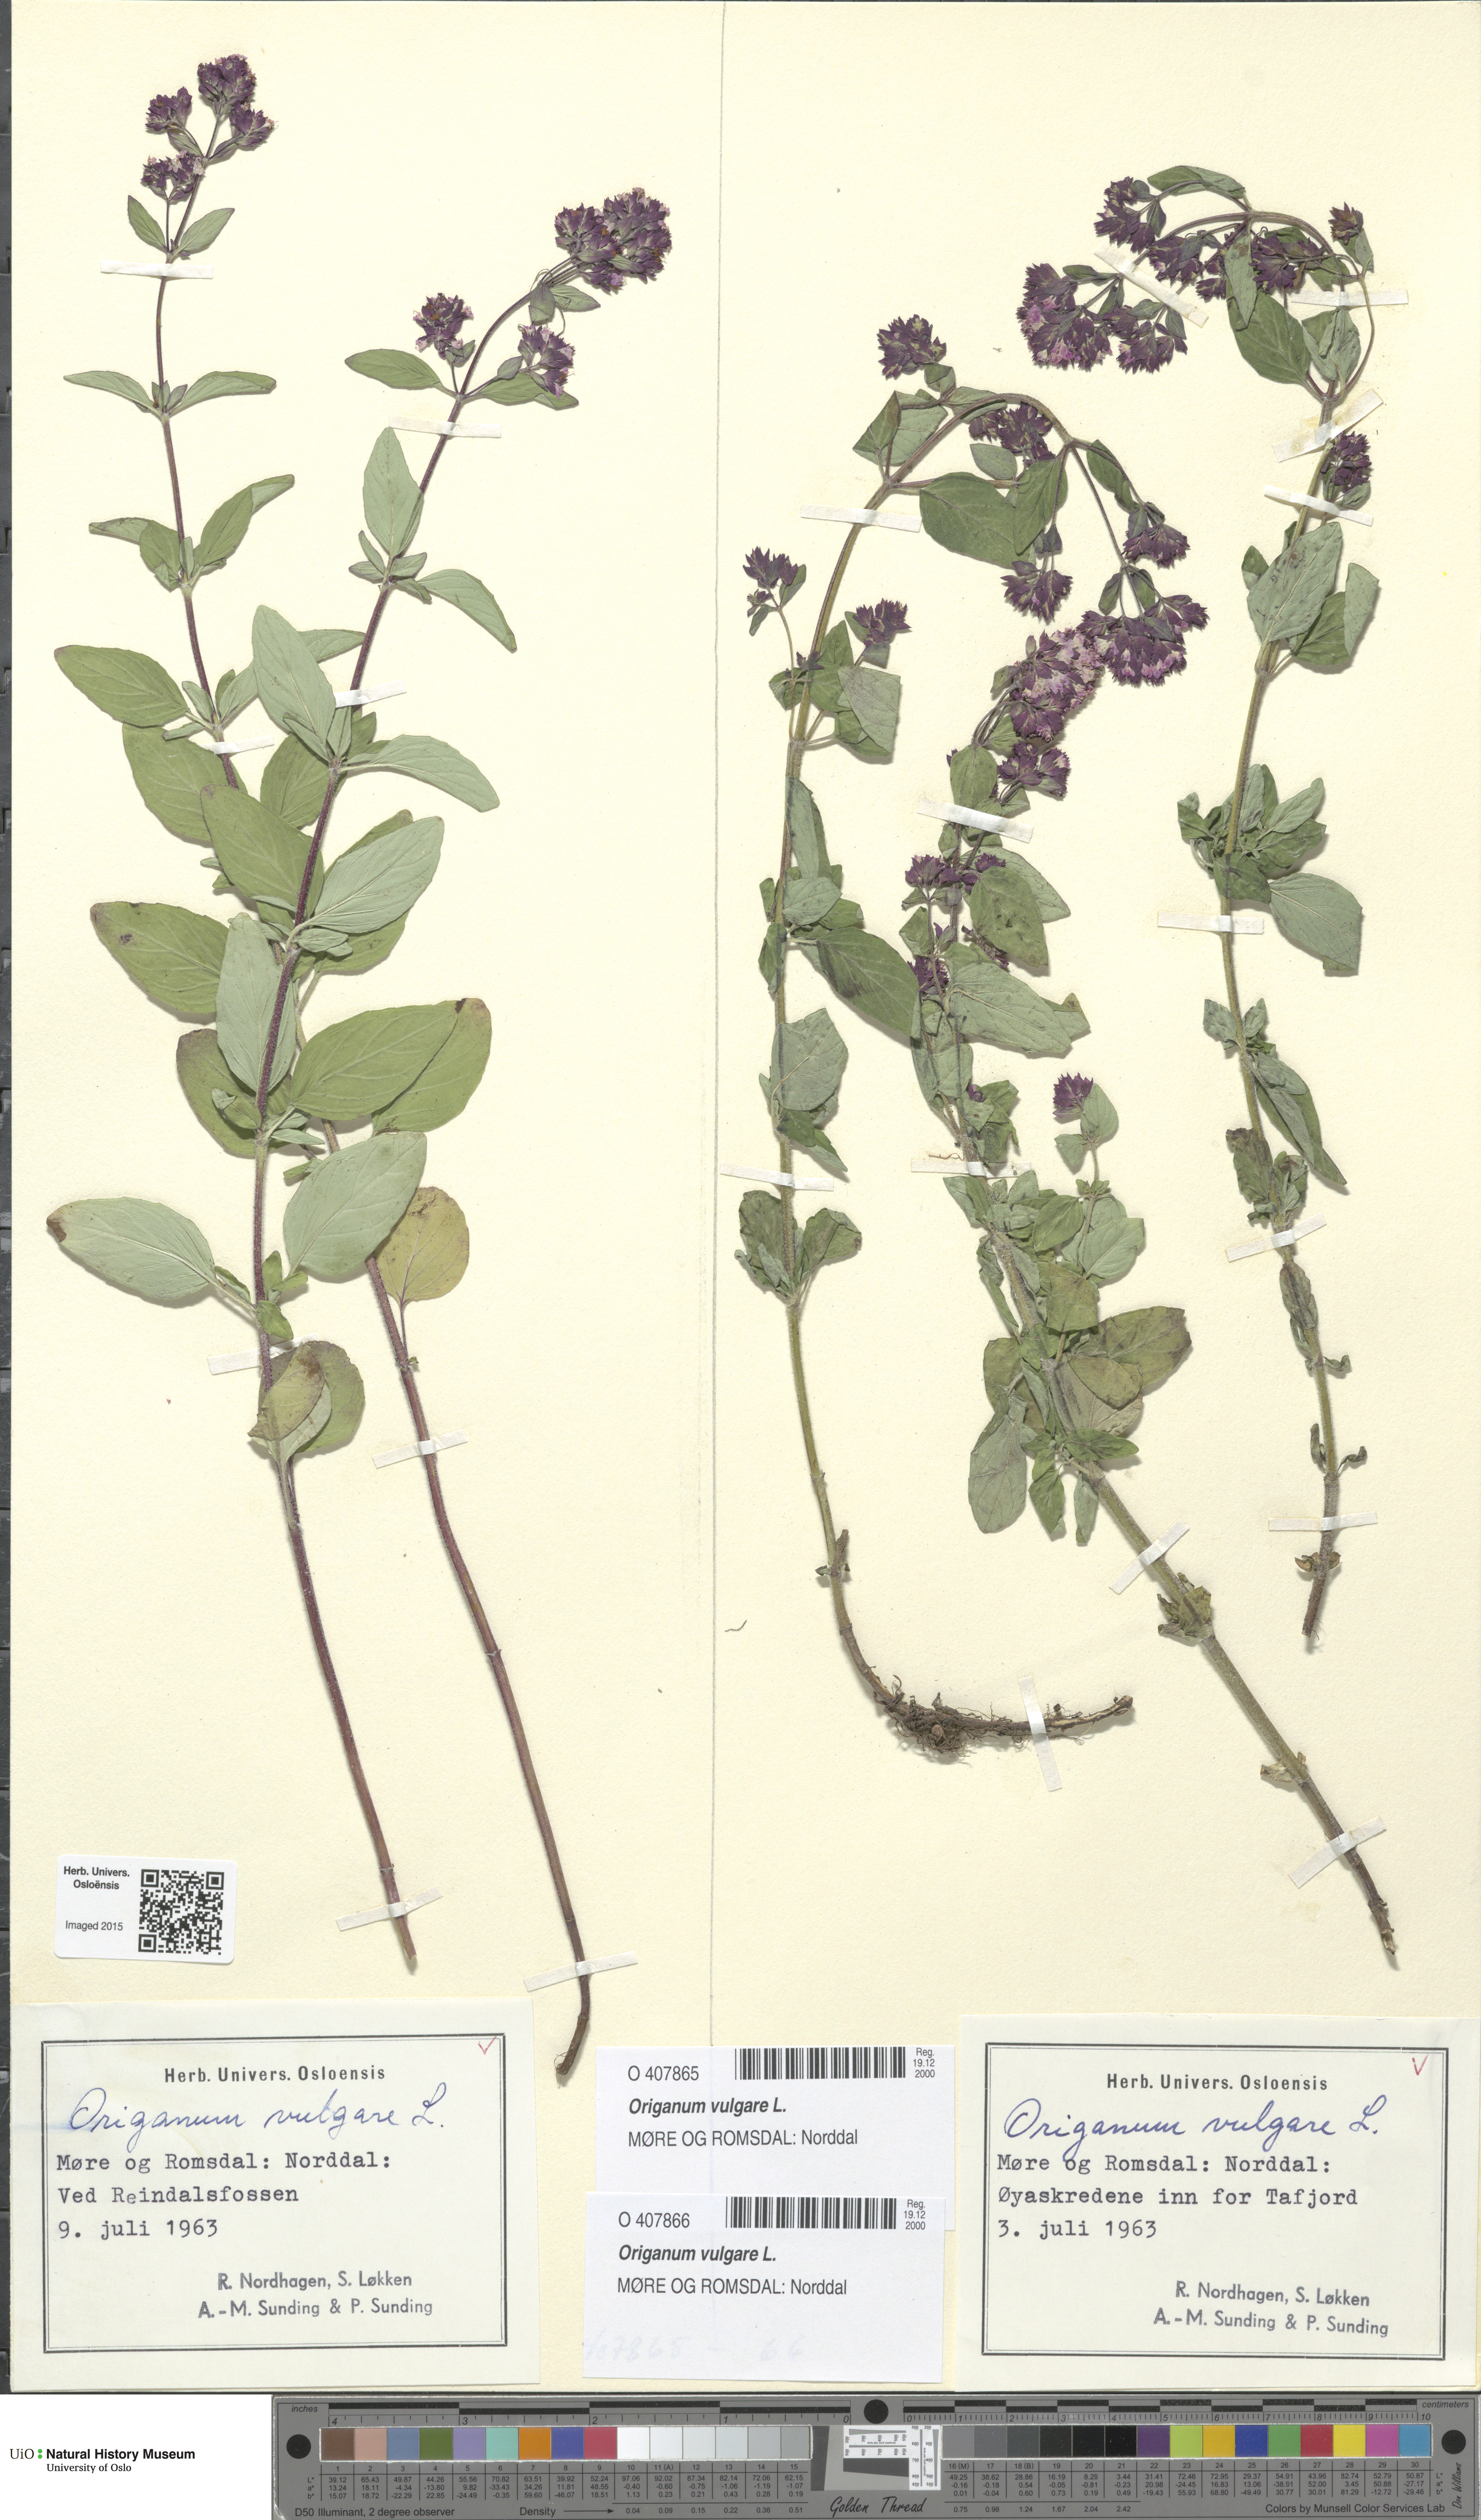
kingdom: Plantae
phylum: Tracheophyta
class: Magnoliopsida
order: Lamiales
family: Lamiaceae
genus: Origanum
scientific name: Origanum vulgare
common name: Wild marjoram
